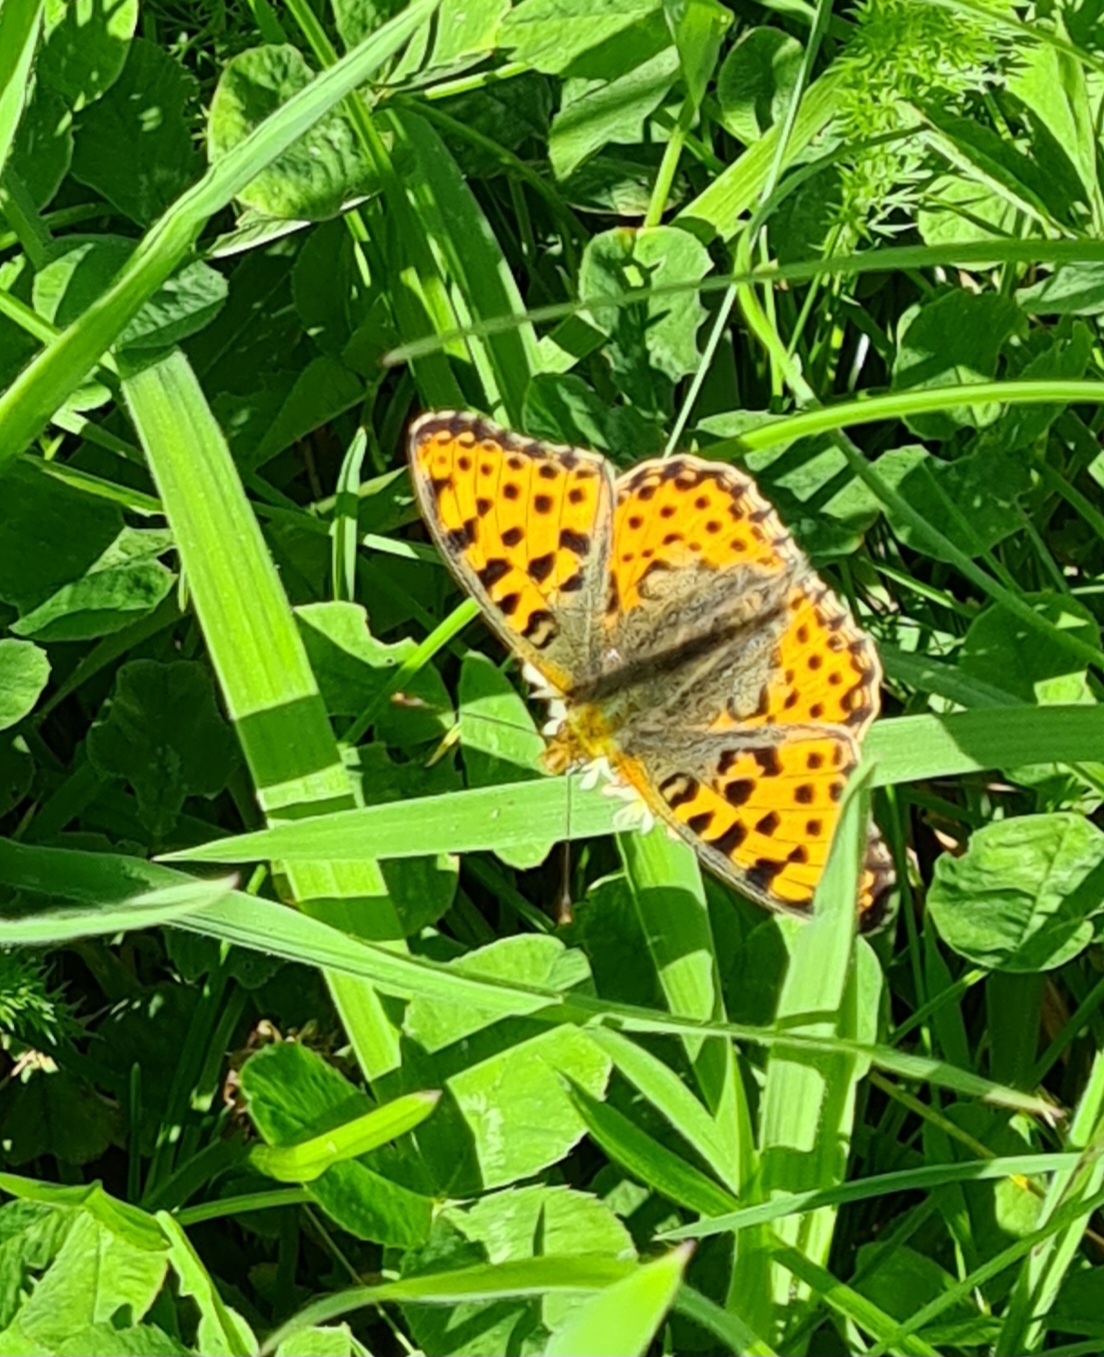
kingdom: Animalia
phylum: Arthropoda
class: Insecta
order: Lepidoptera
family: Nymphalidae
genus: Issoria
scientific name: Issoria lathonia
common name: Storplettet perlemorsommerfugl
